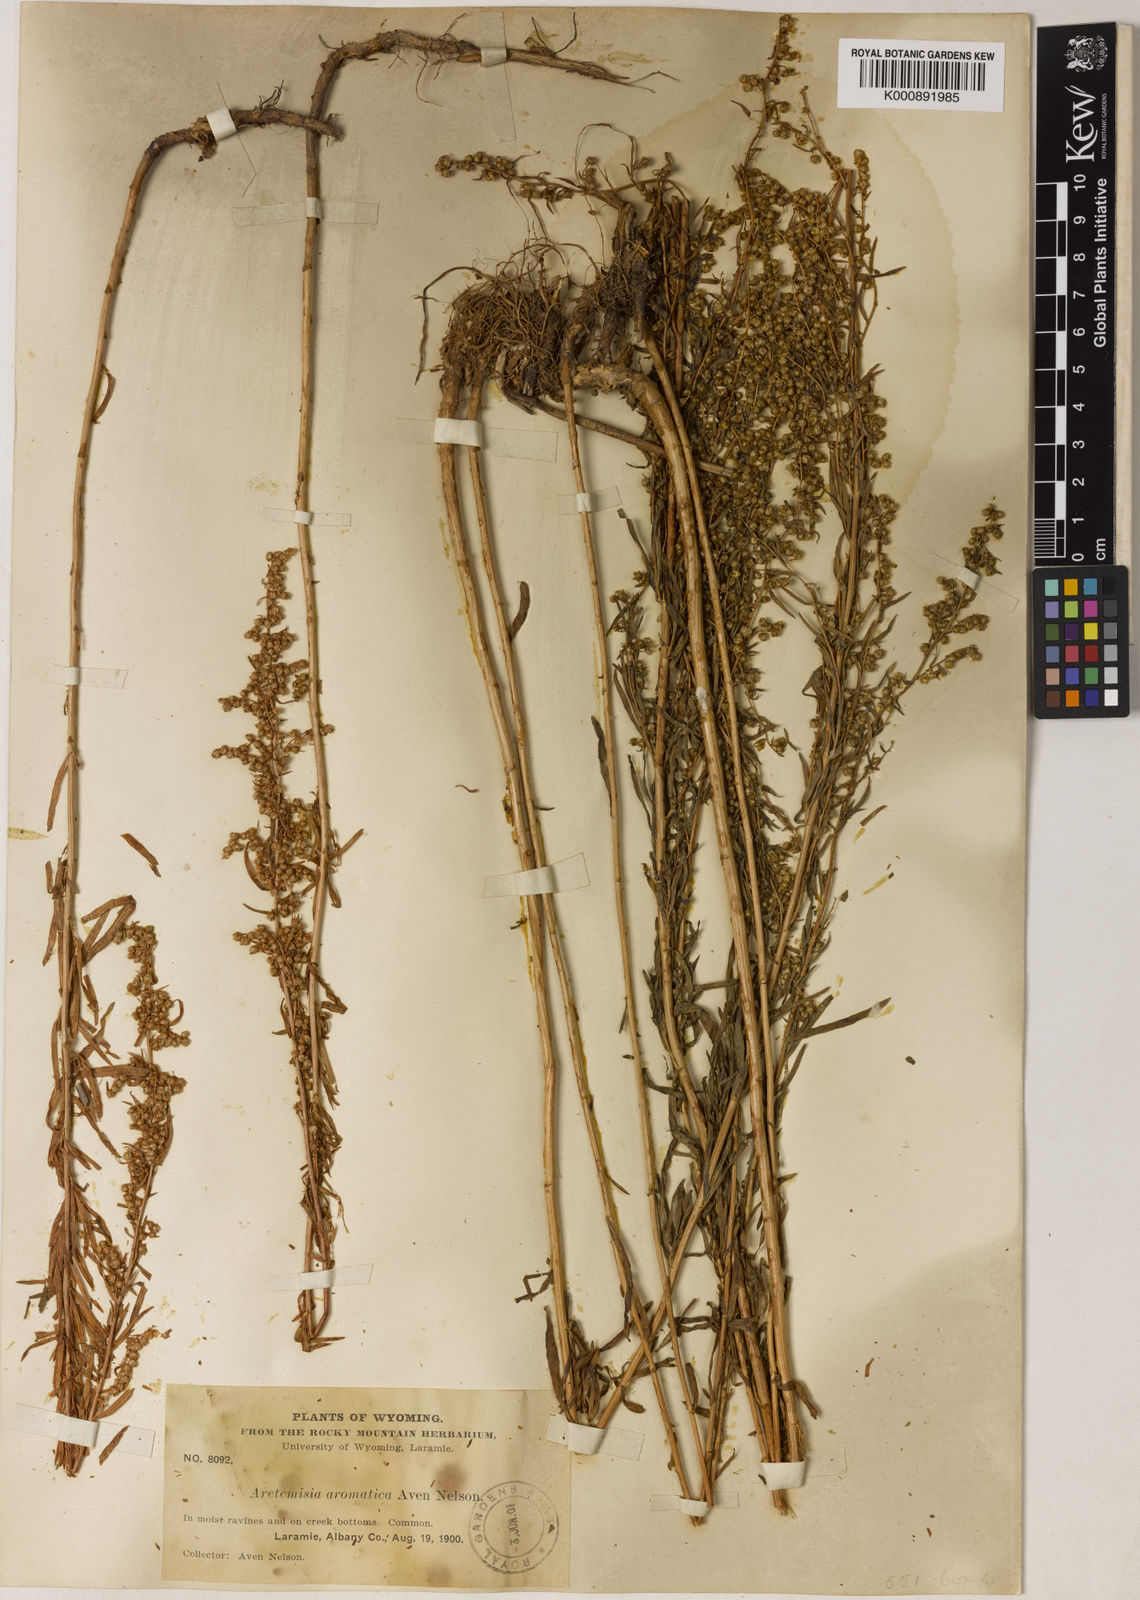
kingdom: Plantae
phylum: Tracheophyta
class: Magnoliopsida
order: Asterales
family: Asteraceae
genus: Artemisia
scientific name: Artemisia dracunculus
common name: Tarragon
